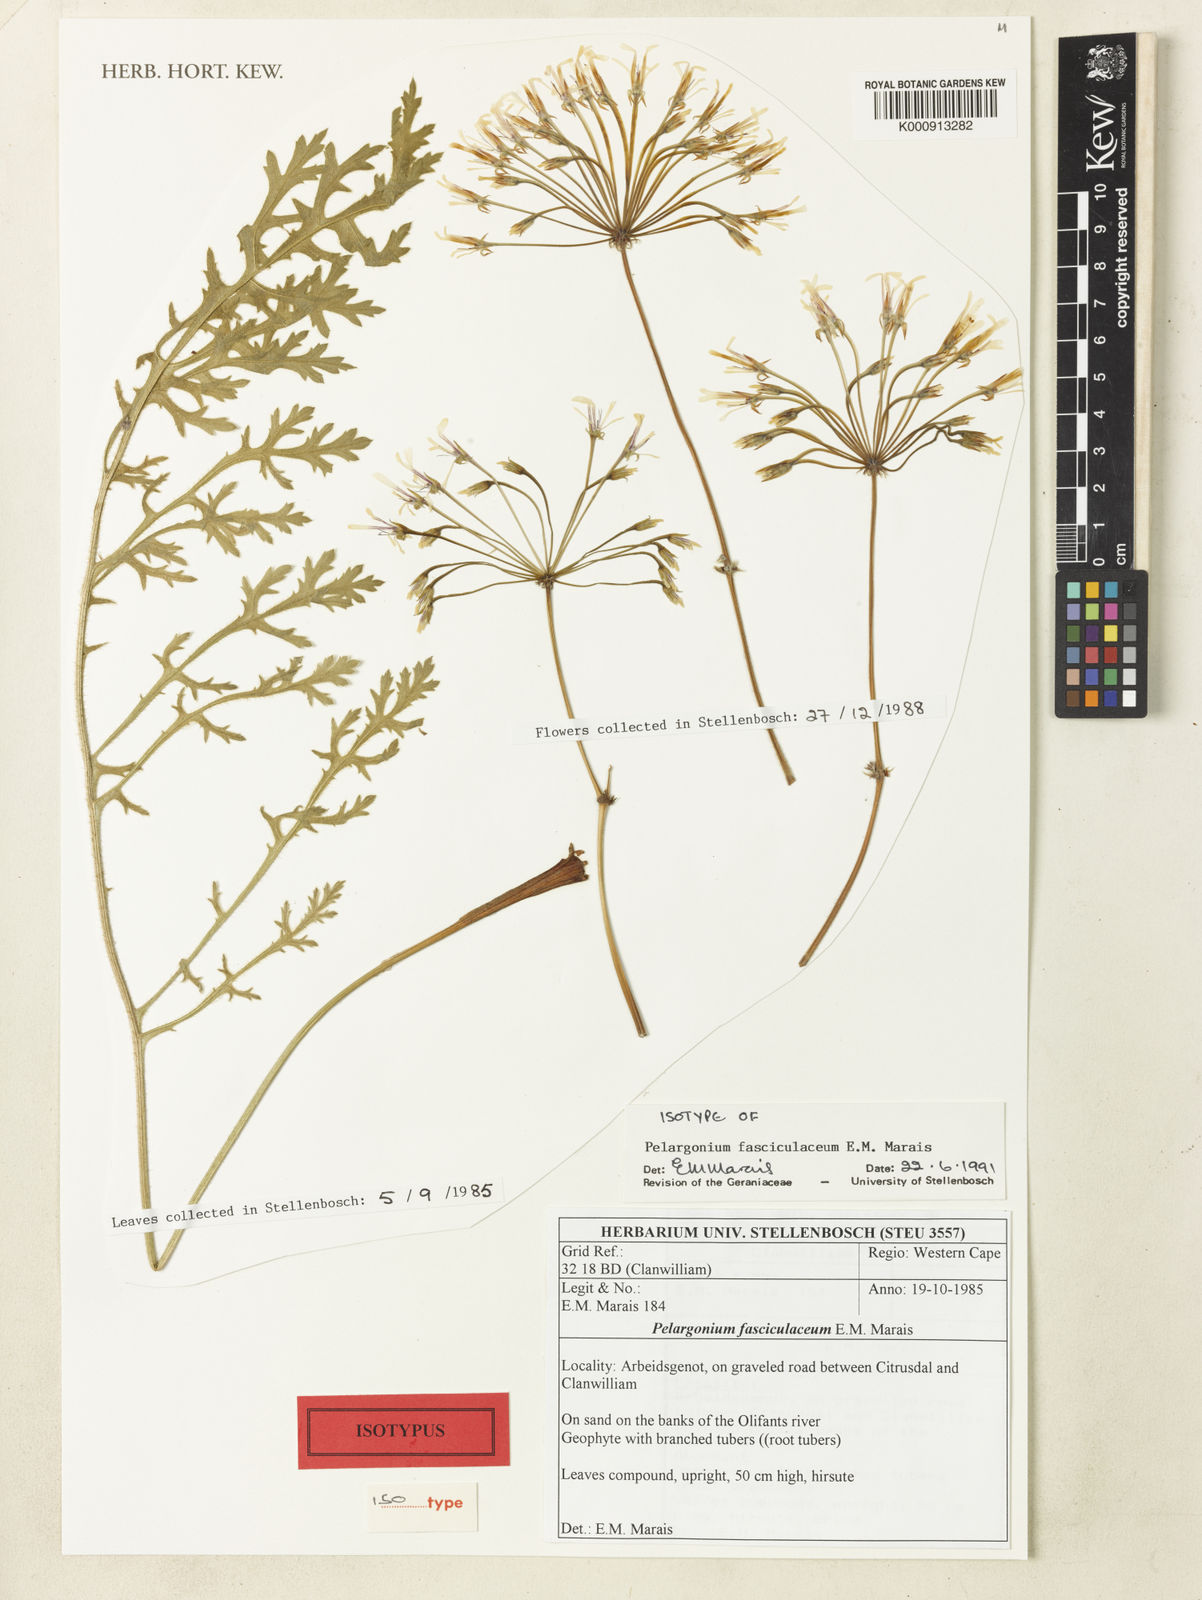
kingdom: Plantae
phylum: Tracheophyta
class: Magnoliopsida
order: Geraniales
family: Geraniaceae
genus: Pelargonium
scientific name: Pelargonium fasciculaceum
